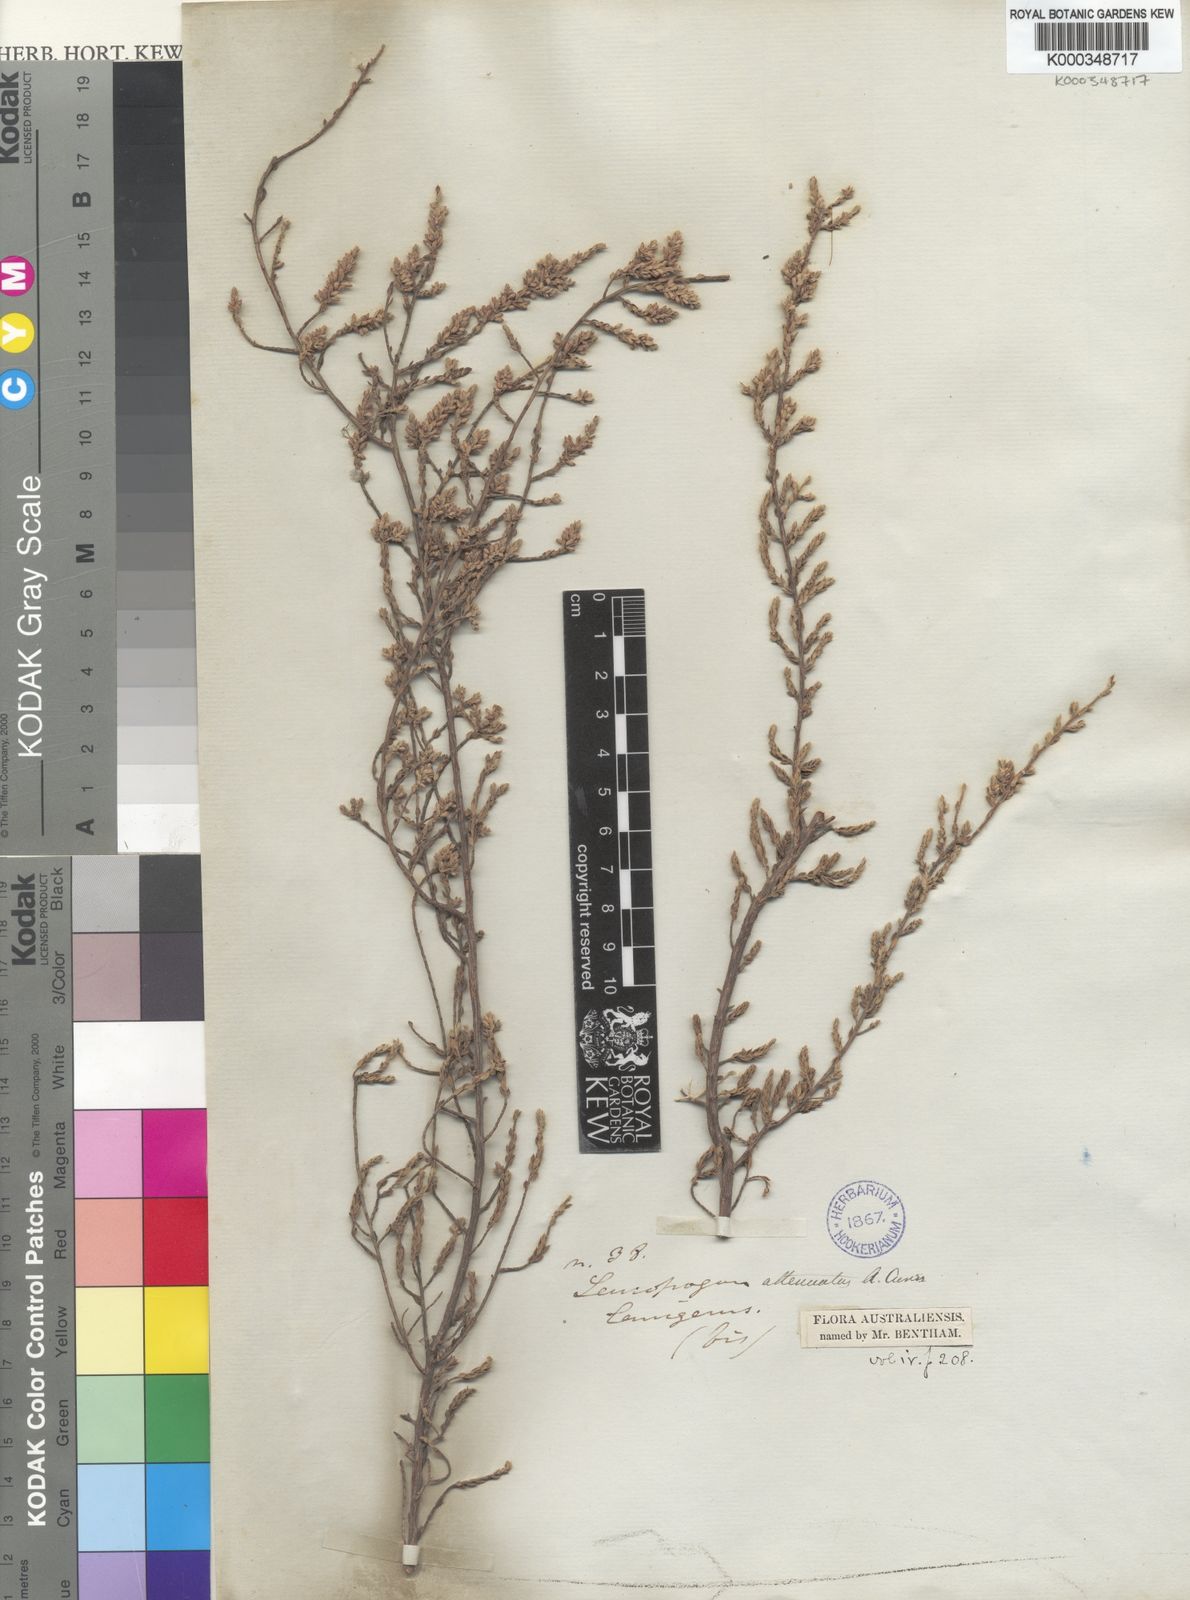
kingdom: Plantae
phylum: Tracheophyta
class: Magnoliopsida
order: Ericales
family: Ericaceae
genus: Styphelia
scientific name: Styphelia attenuata
